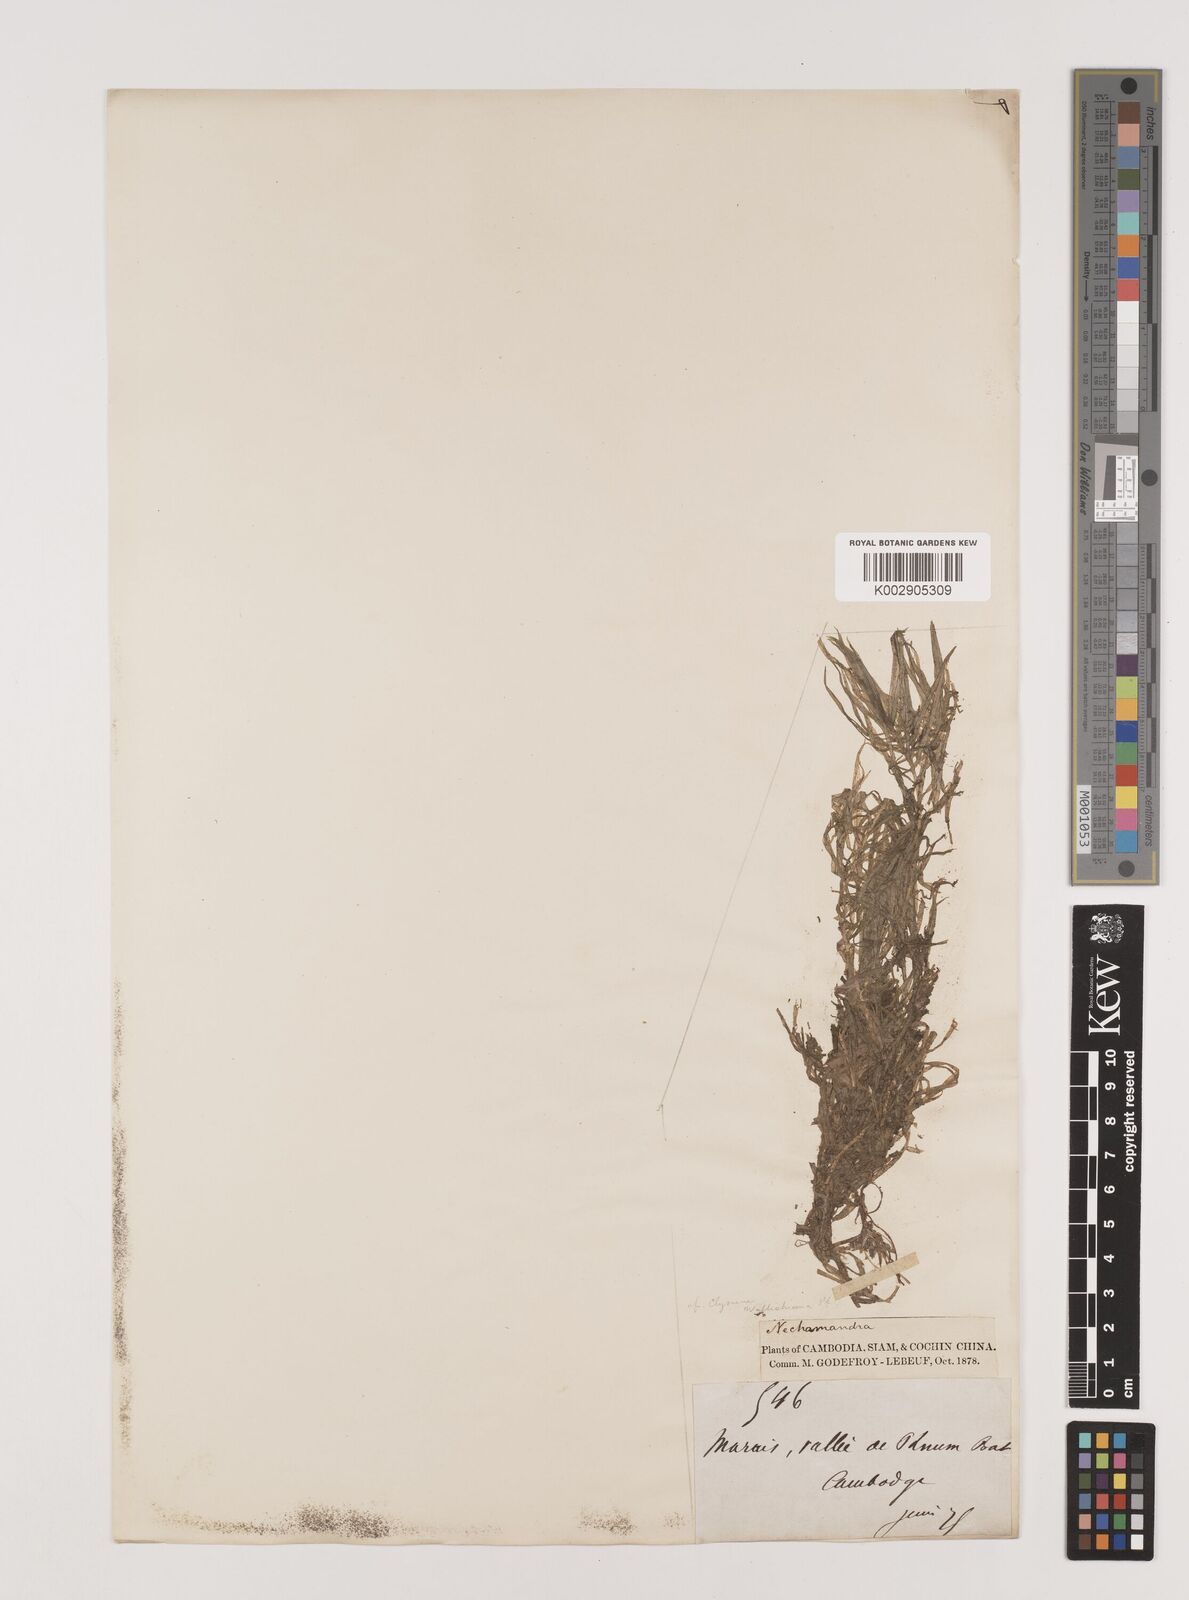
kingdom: Plantae
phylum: Tracheophyta
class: Liliopsida
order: Alismatales
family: Hydrocharitaceae
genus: Blyxa
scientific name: Blyxa japonica
